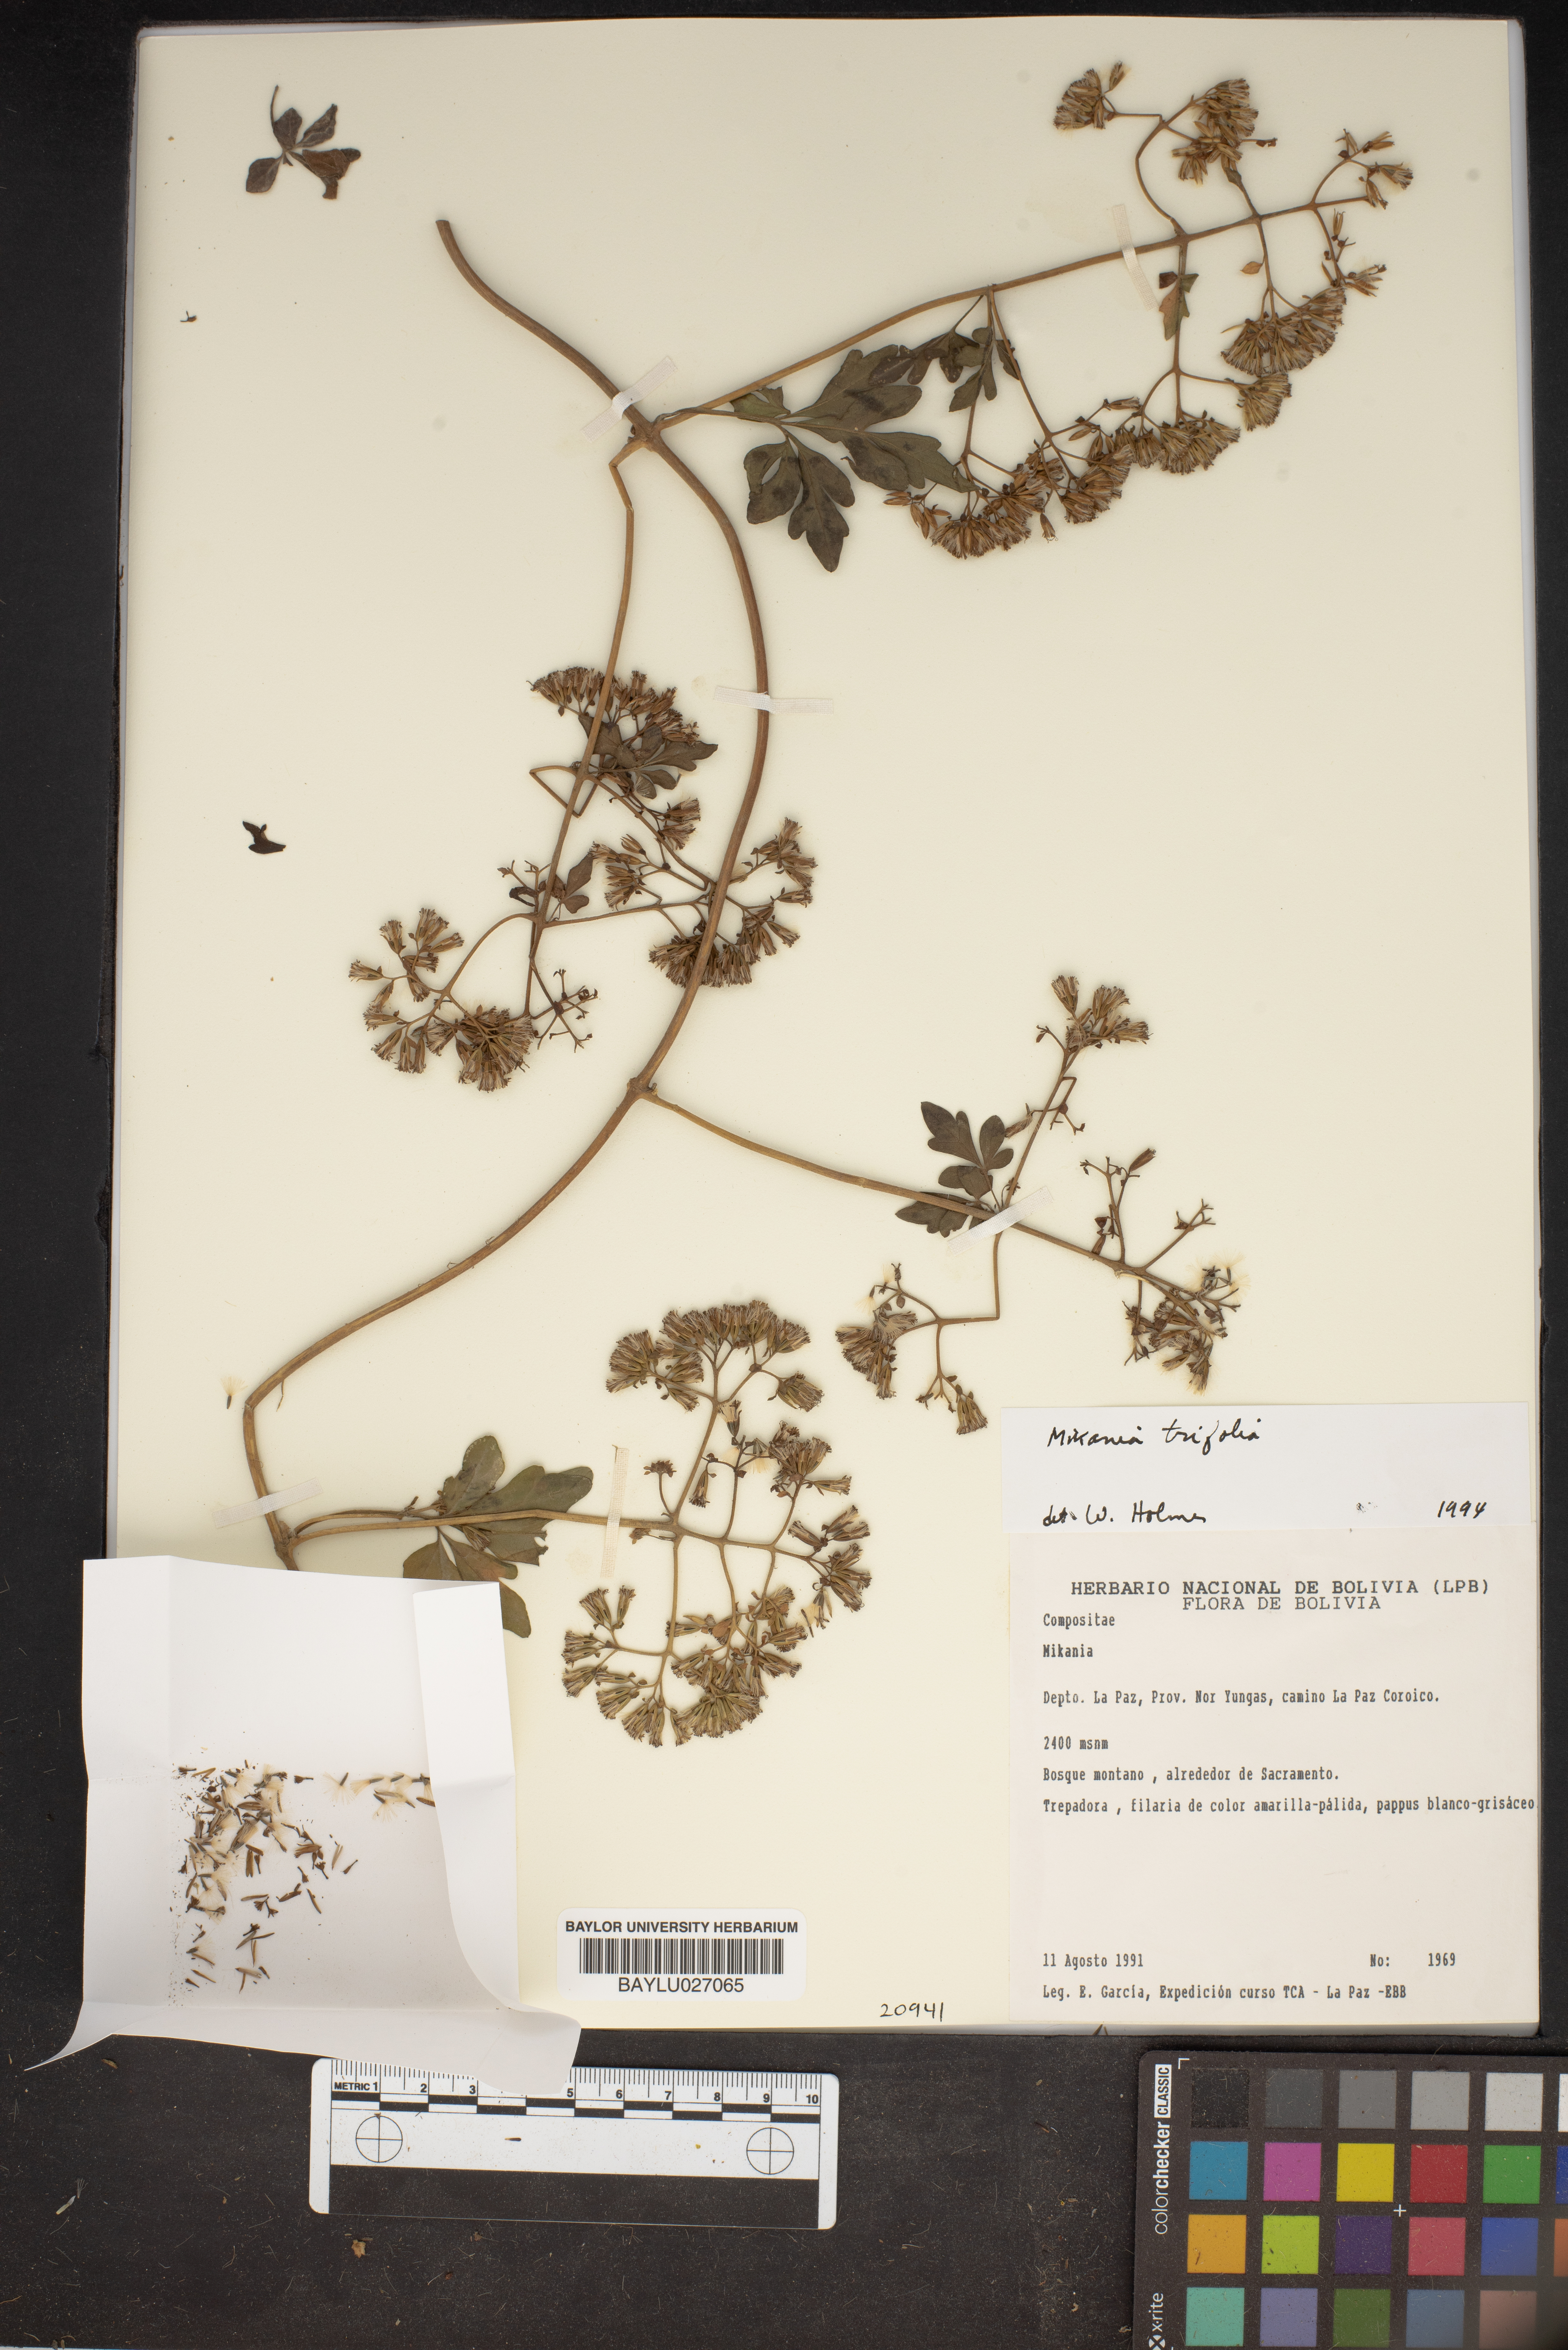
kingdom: Plantae
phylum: Tracheophyta
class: Magnoliopsida
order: Asterales
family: Asteraceae
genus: Mikania
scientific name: Mikania ternata
